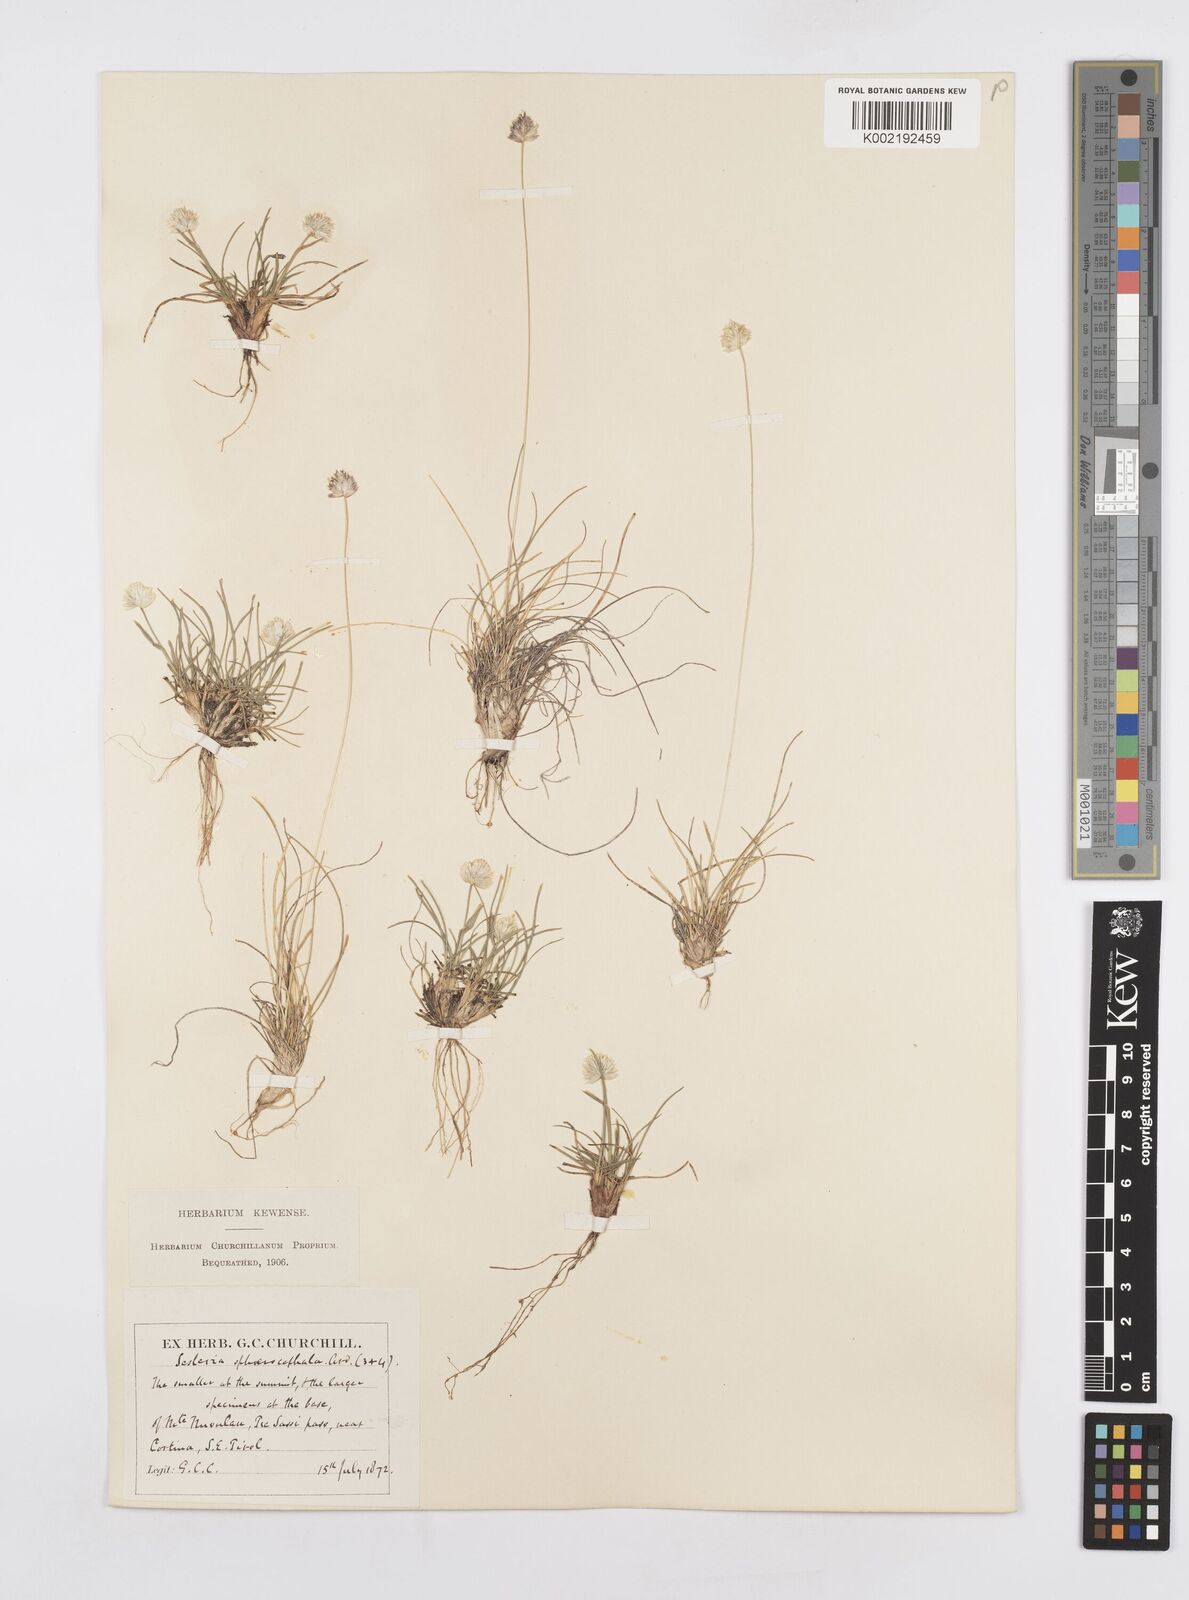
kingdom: Plantae
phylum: Tracheophyta
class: Liliopsida
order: Poales
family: Poaceae
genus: Sesleriella
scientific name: Sesleriella sphaerocephala
